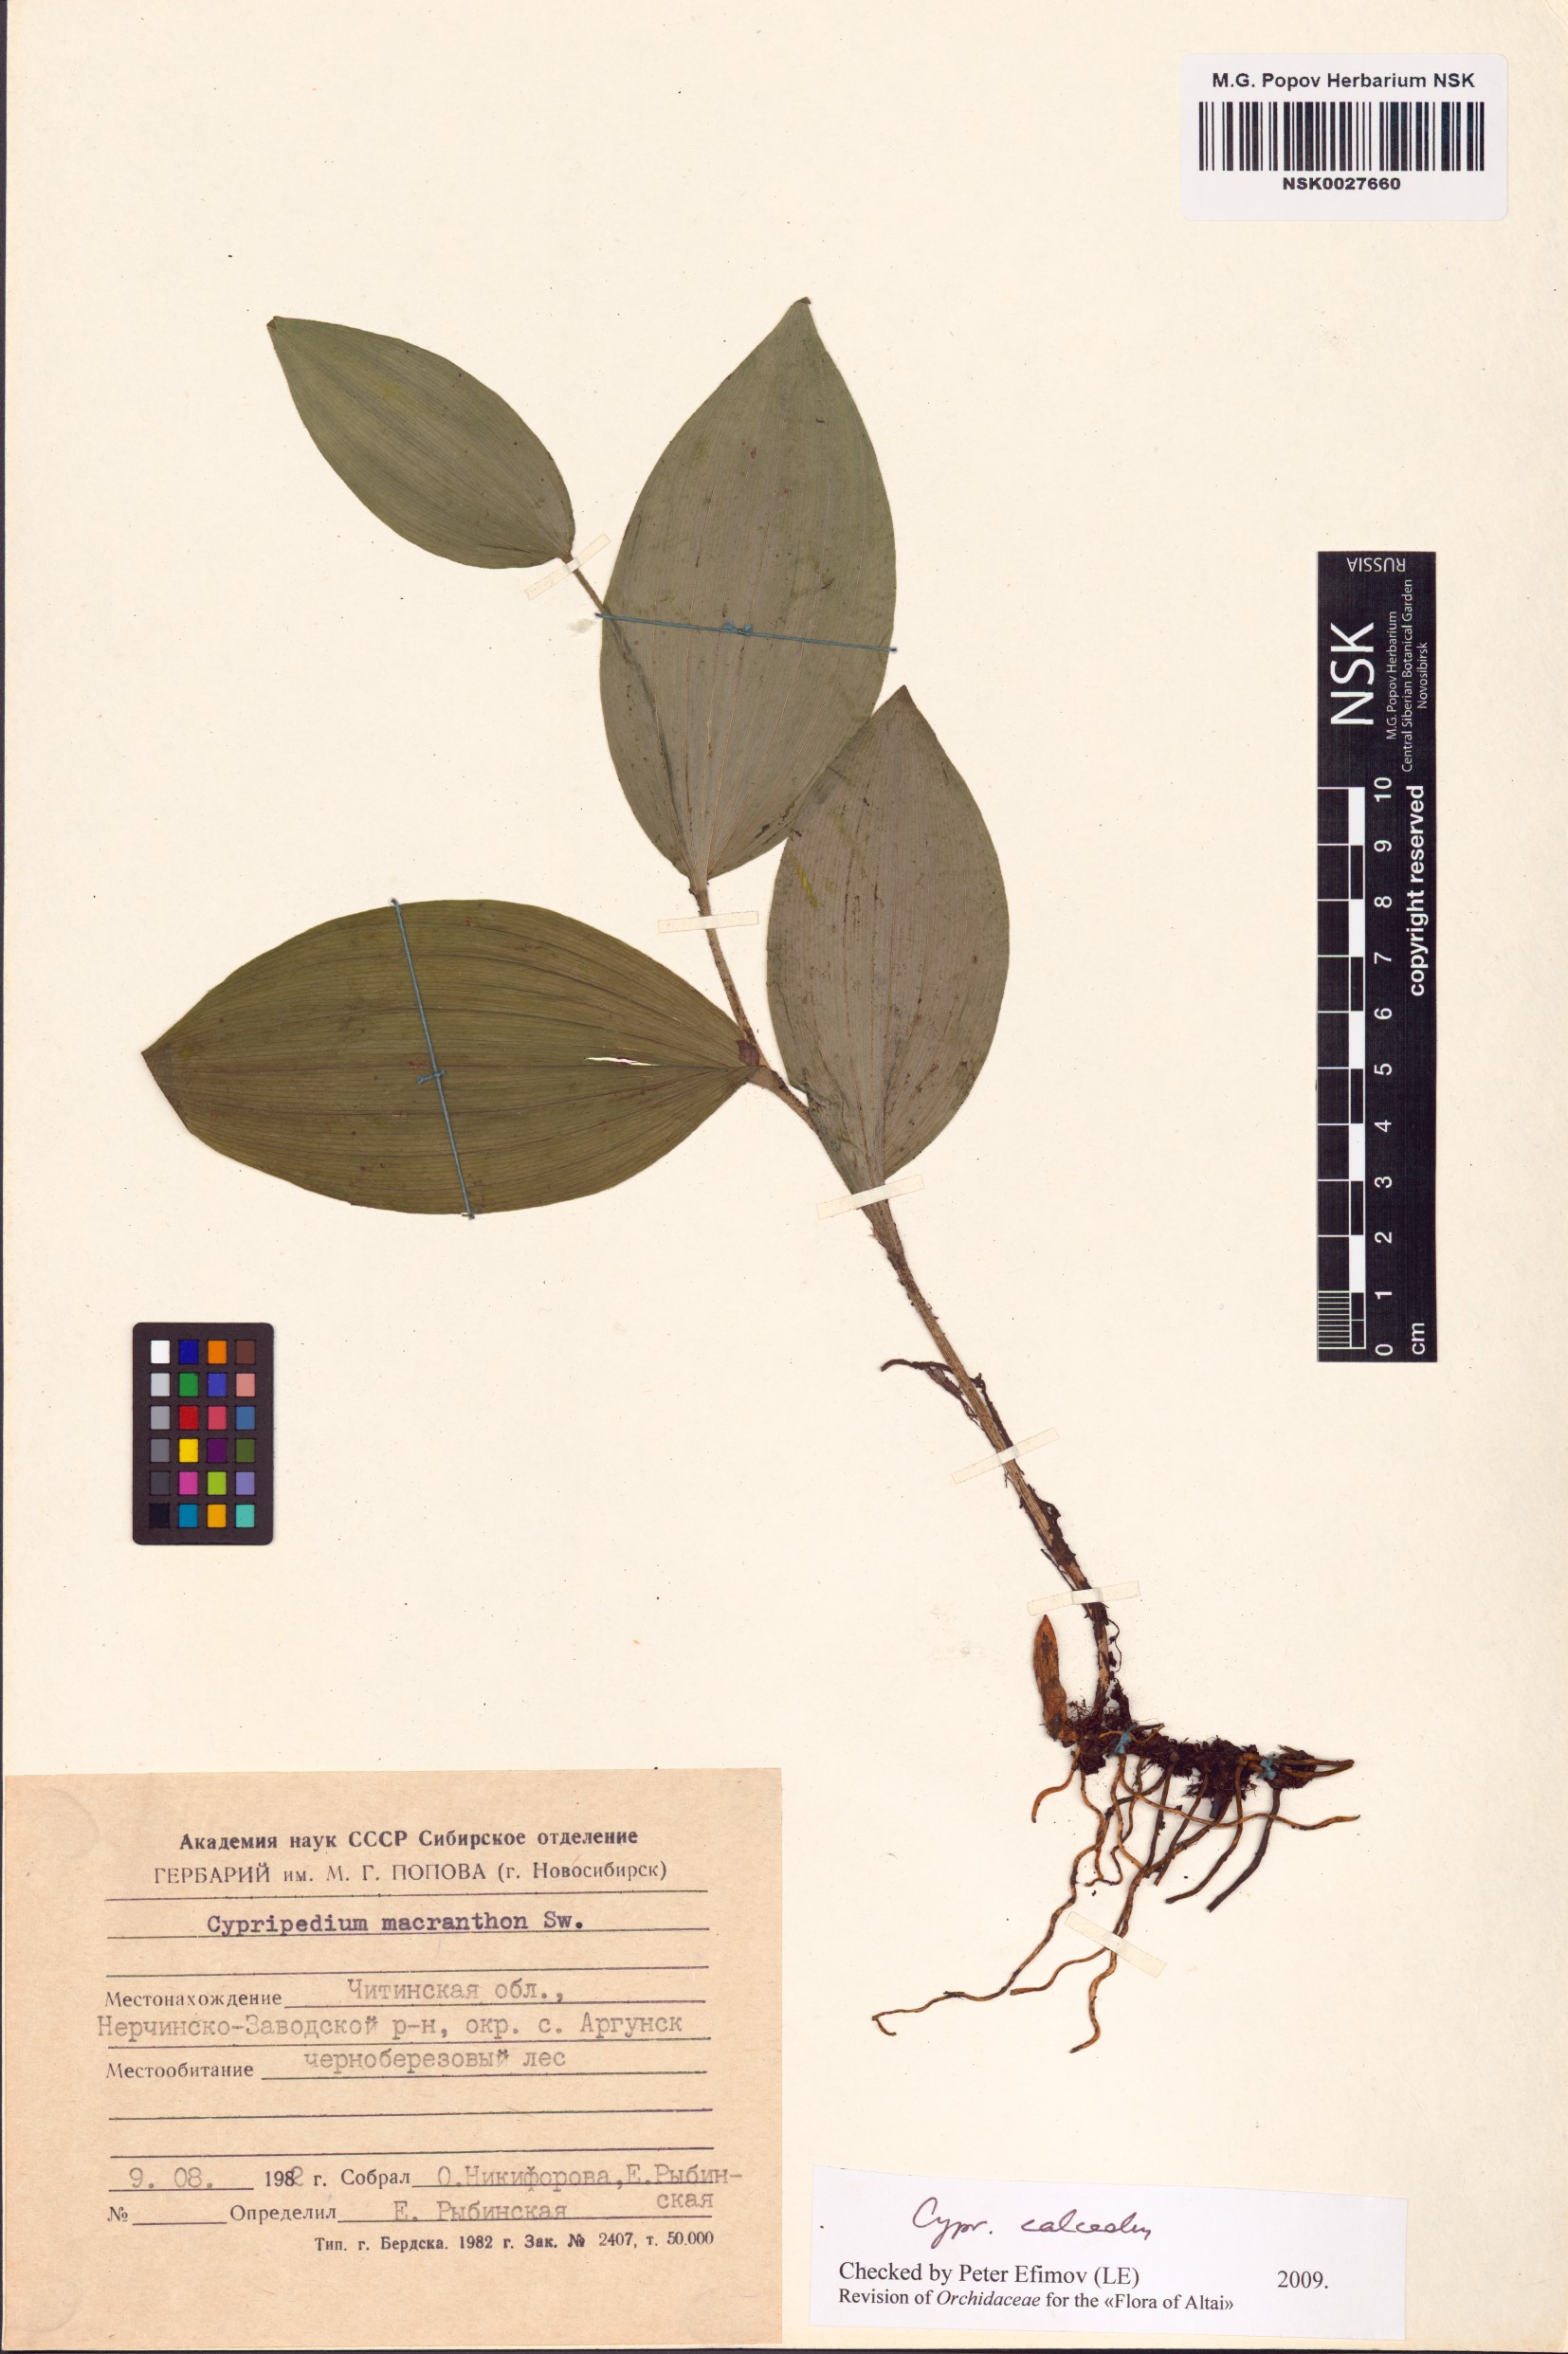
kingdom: Plantae
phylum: Tracheophyta
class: Liliopsida
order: Asparagales
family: Orchidaceae
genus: Cypripedium
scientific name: Cypripedium calceolus
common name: Lady's-slipper
